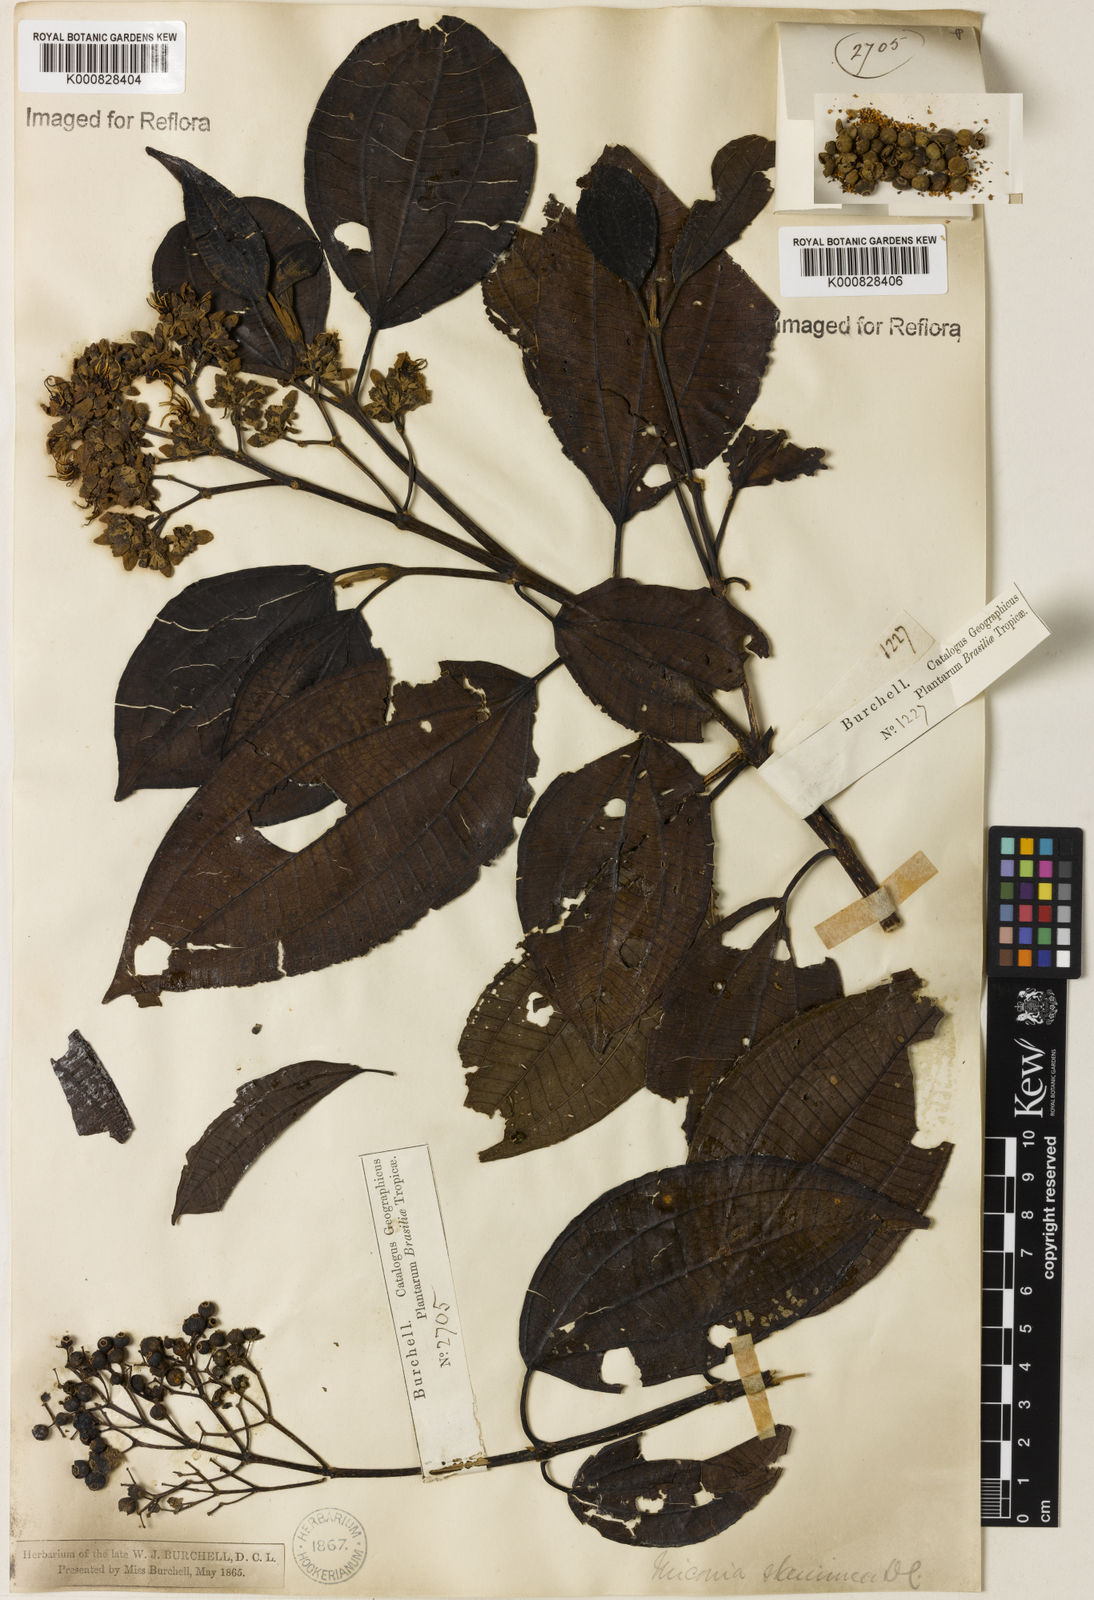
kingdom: Plantae
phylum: Tracheophyta
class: Magnoliopsida
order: Myrtales
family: Melastomataceae
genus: Miconia
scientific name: Miconia staminea
